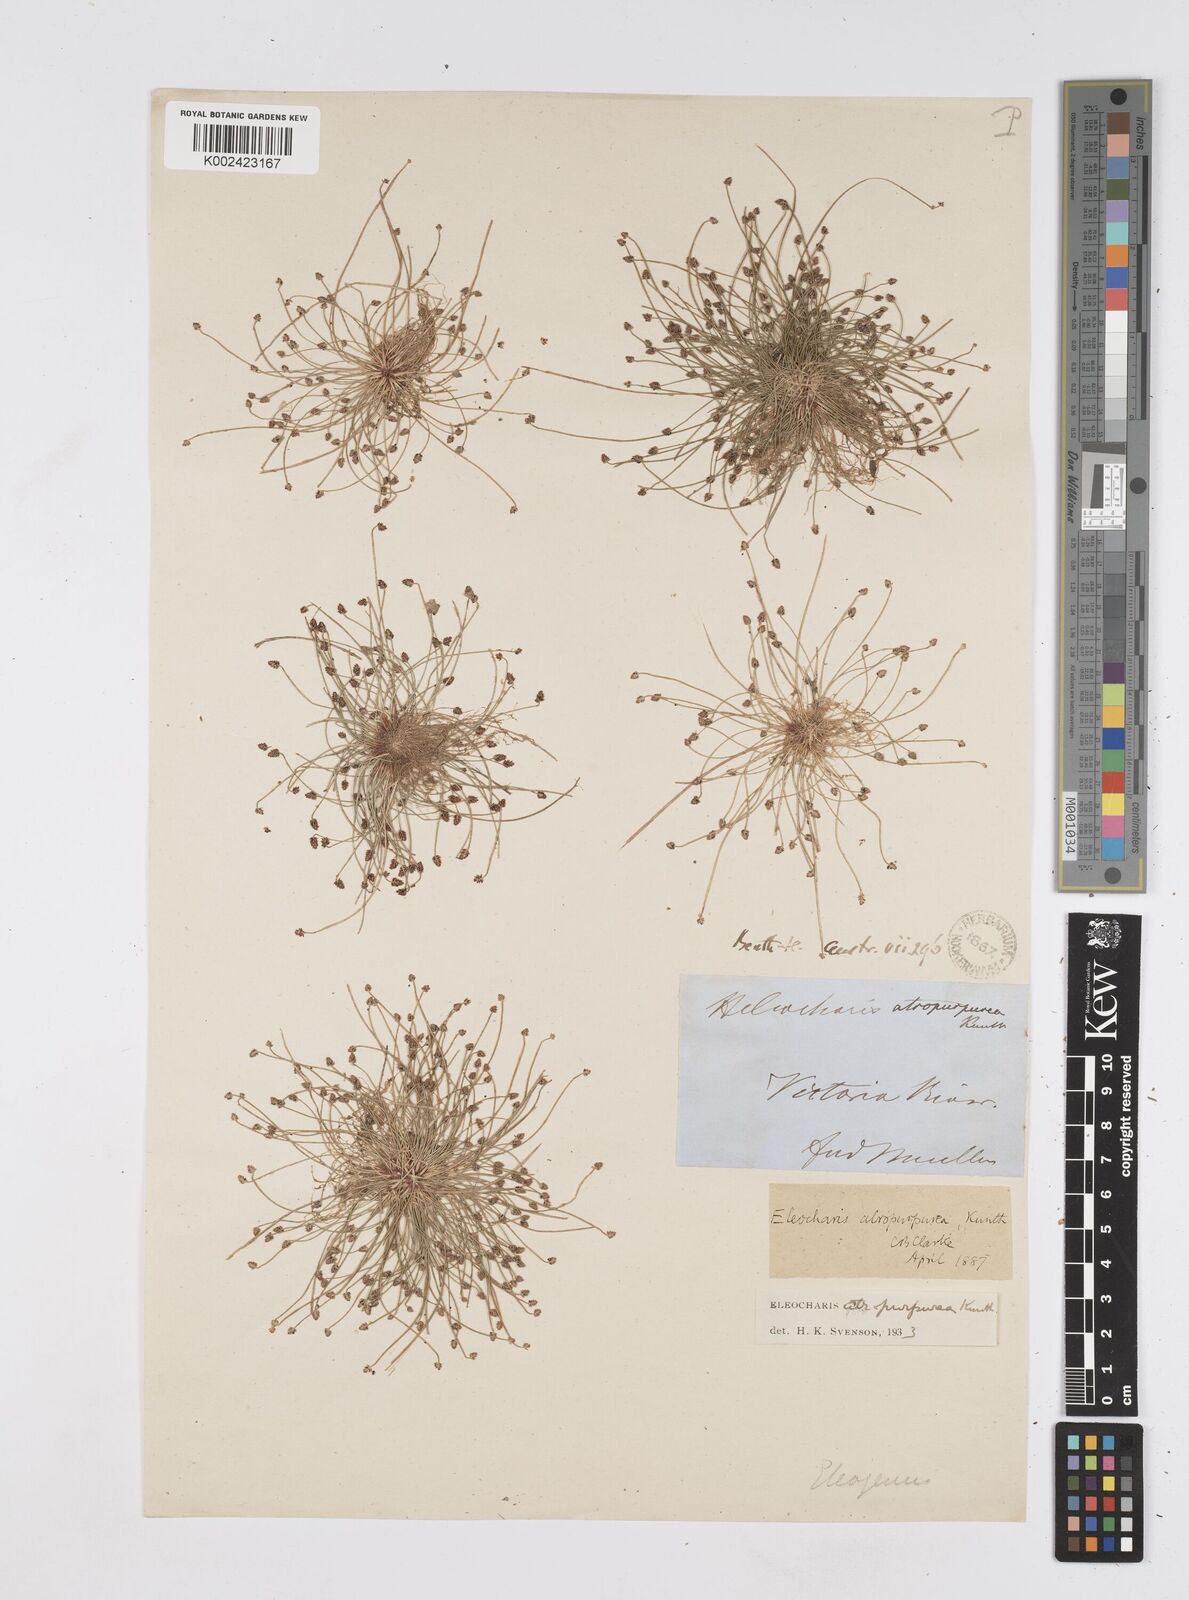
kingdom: Plantae
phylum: Tracheophyta
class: Liliopsida
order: Poales
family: Cyperaceae
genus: Eleocharis
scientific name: Eleocharis atropurpurea
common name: Purple spikerush
